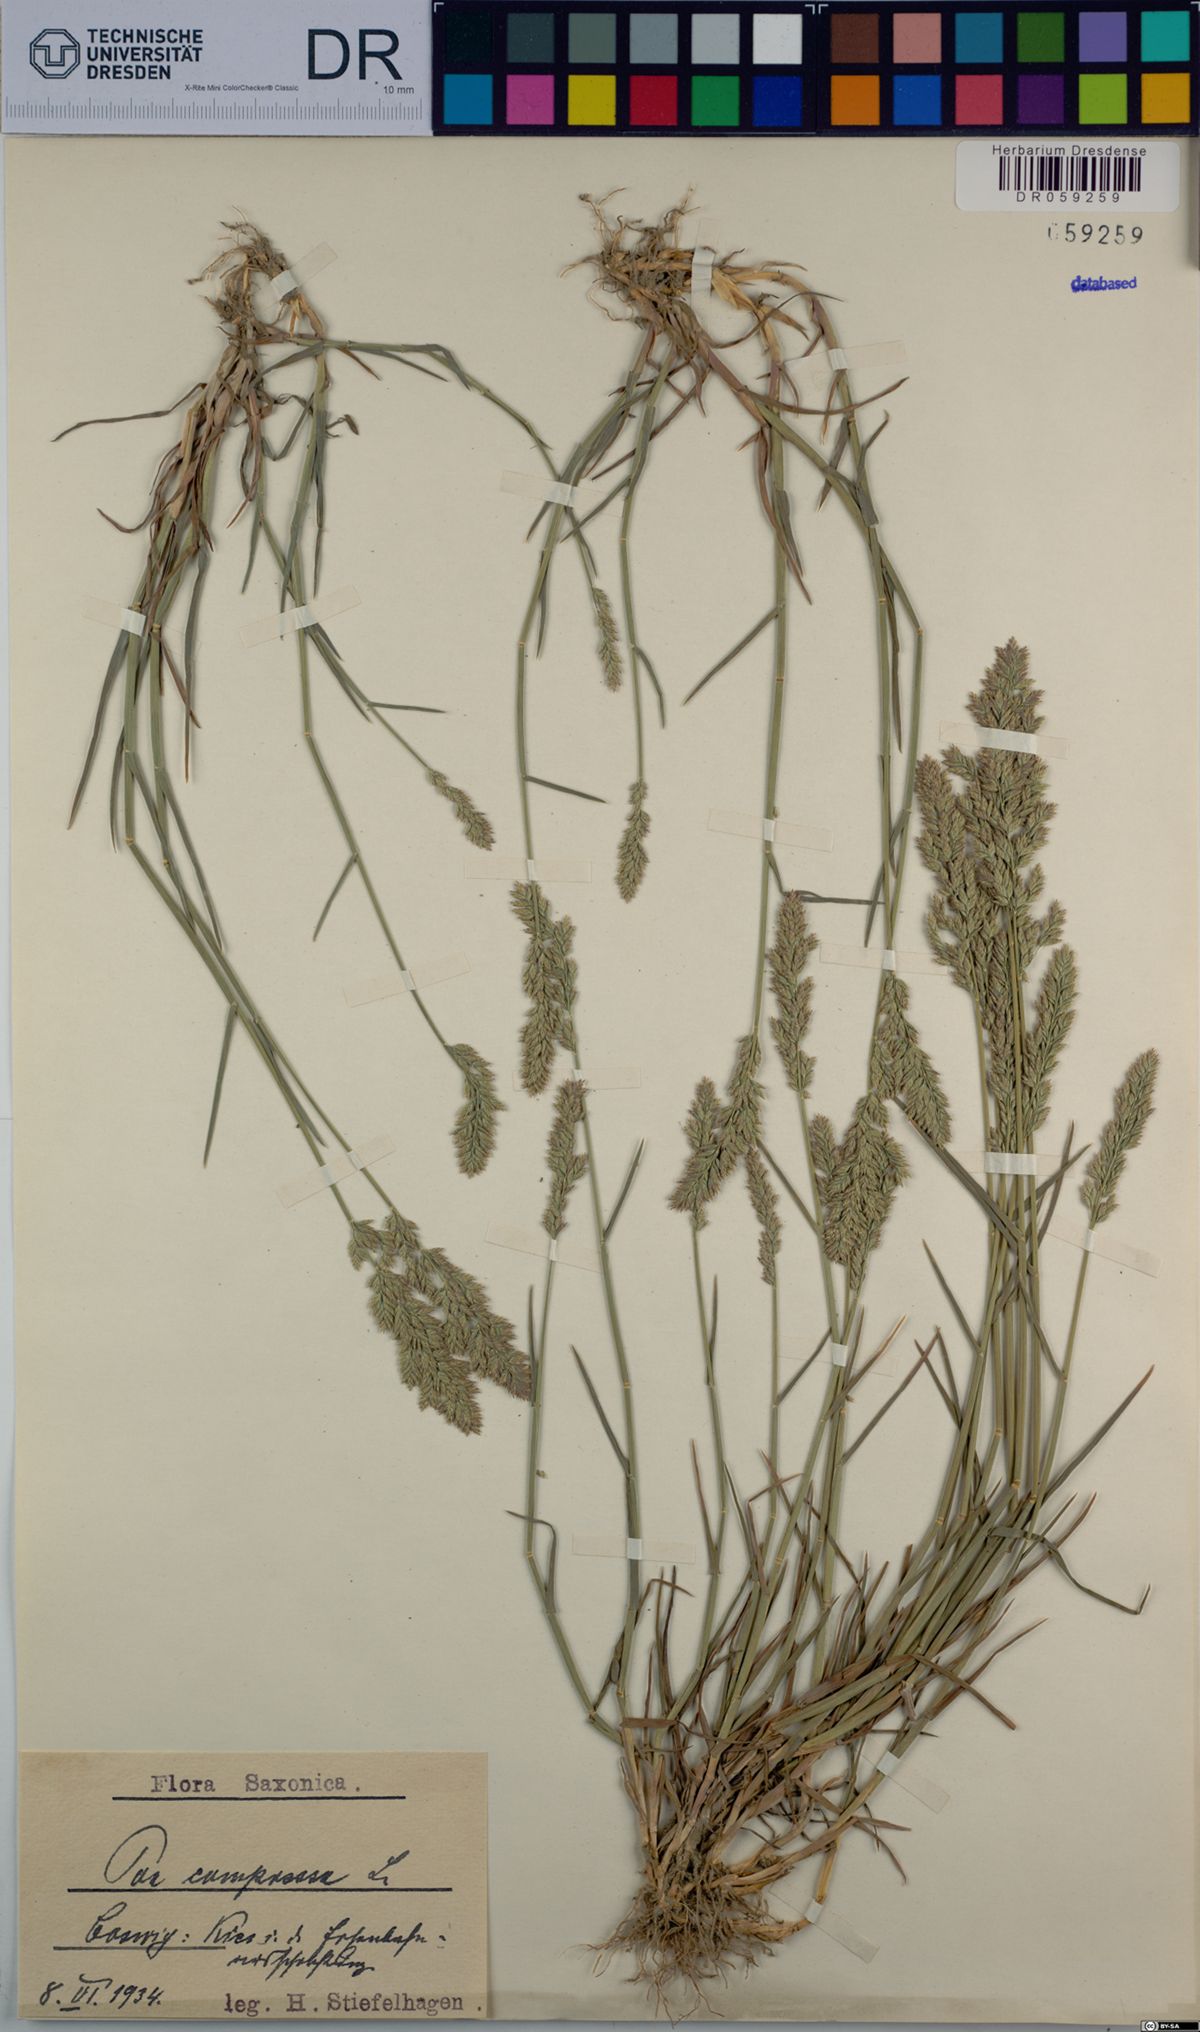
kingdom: Plantae
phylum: Tracheophyta
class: Liliopsida
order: Poales
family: Poaceae
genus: Poa
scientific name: Poa compressa
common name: Canada bluegrass
